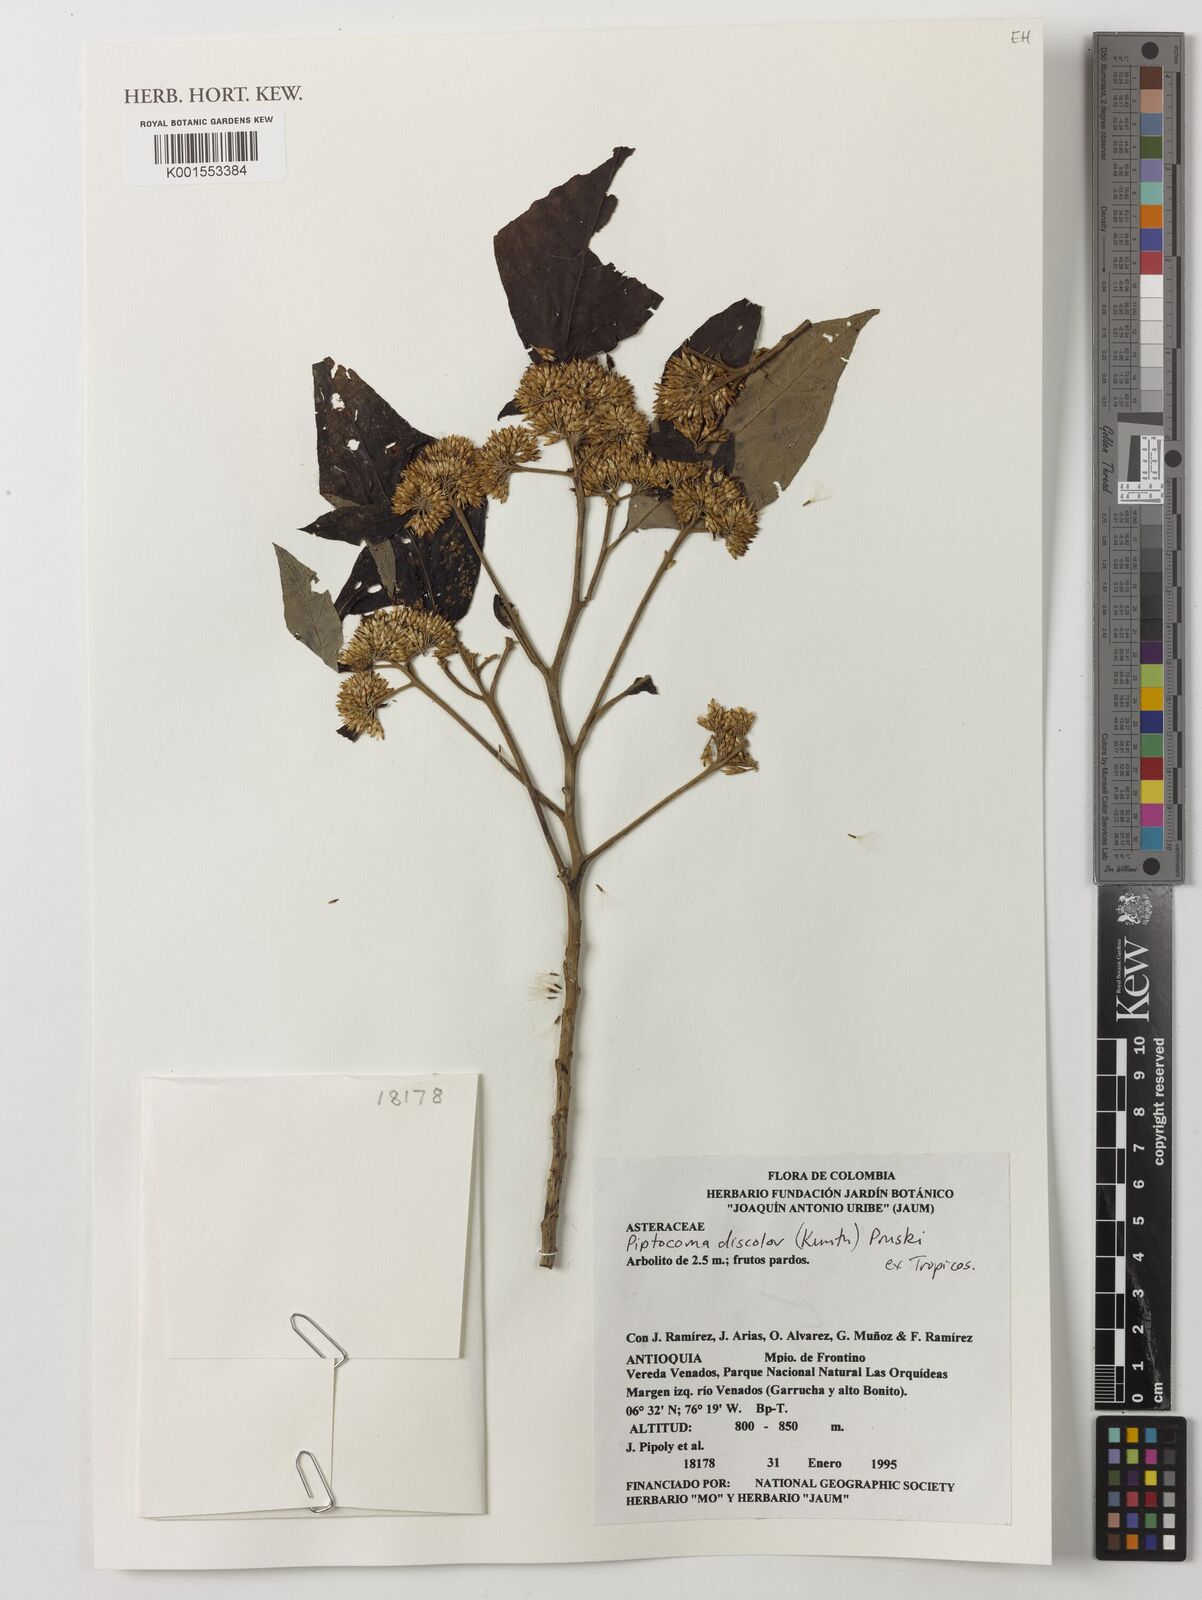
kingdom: Plantae
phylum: Tracheophyta
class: Magnoliopsida
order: Asterales
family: Asteraceae
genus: Piptocoma
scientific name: Piptocoma discolor
